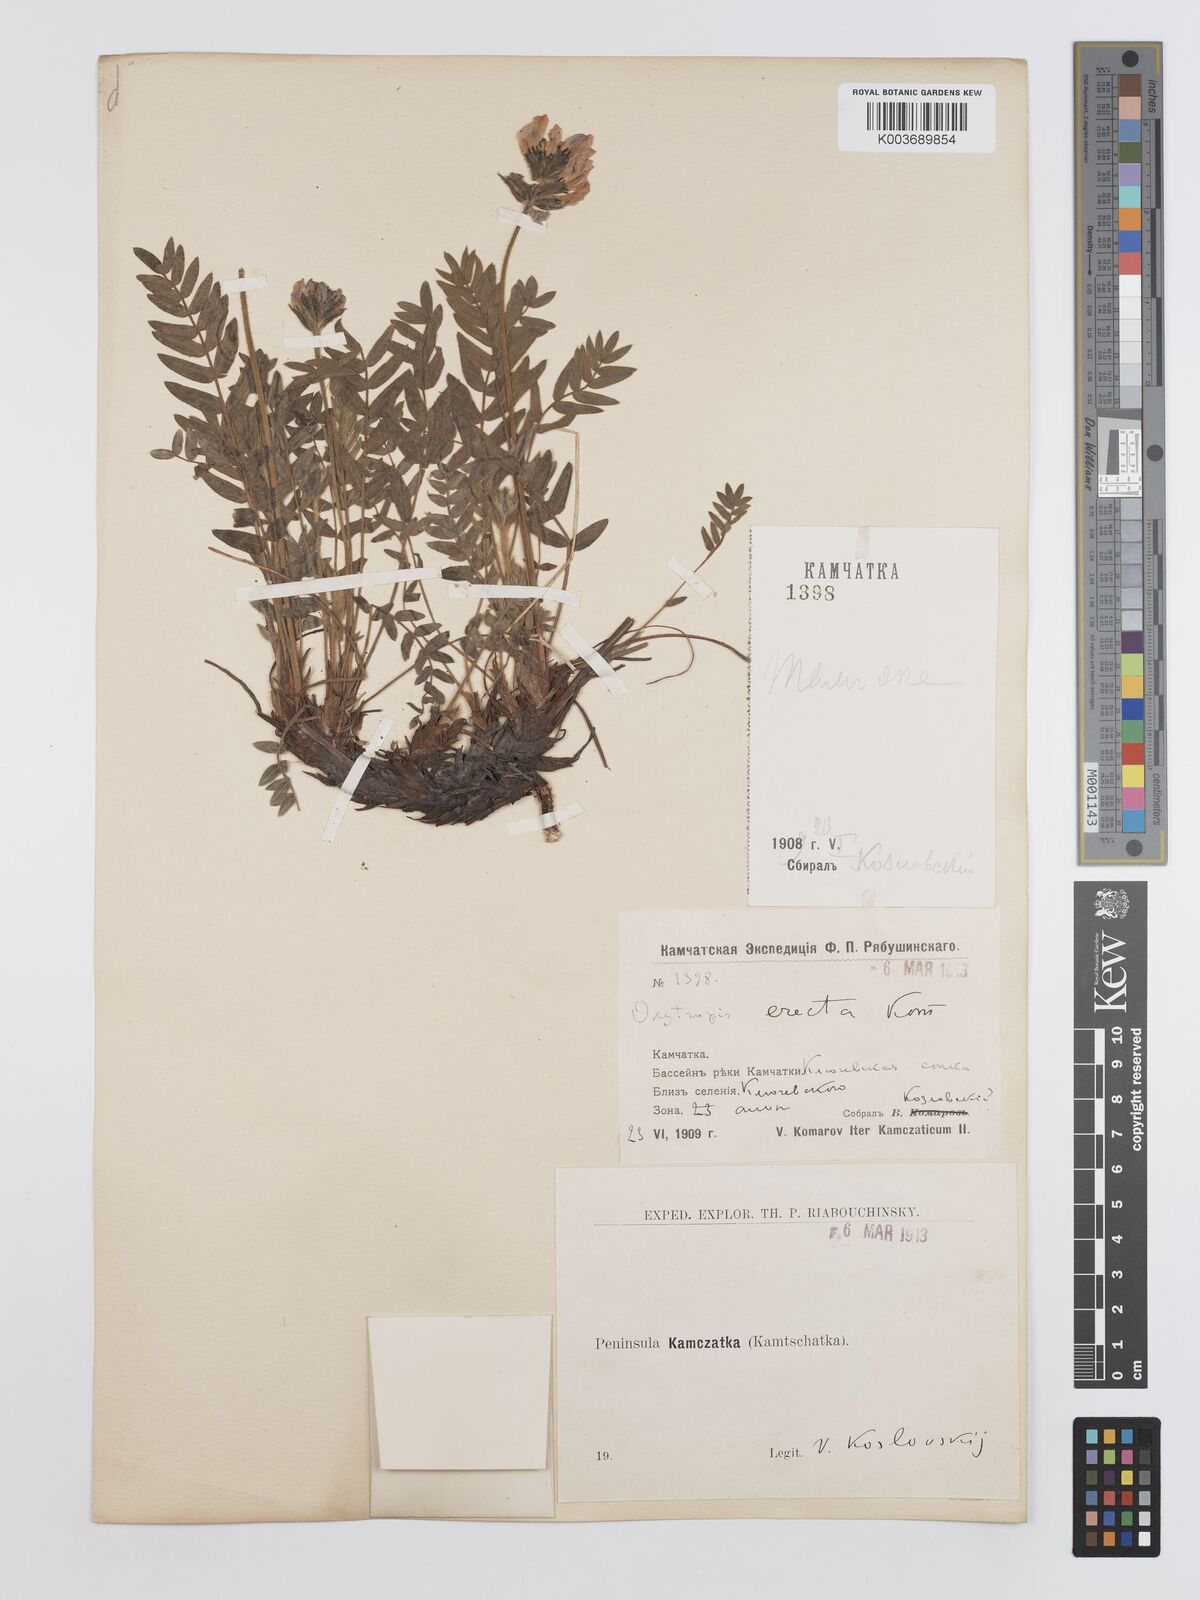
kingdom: Plantae
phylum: Tracheophyta
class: Magnoliopsida
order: Fabales
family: Fabaceae
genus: Oxytropis
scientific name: Oxytropis adamsiana
